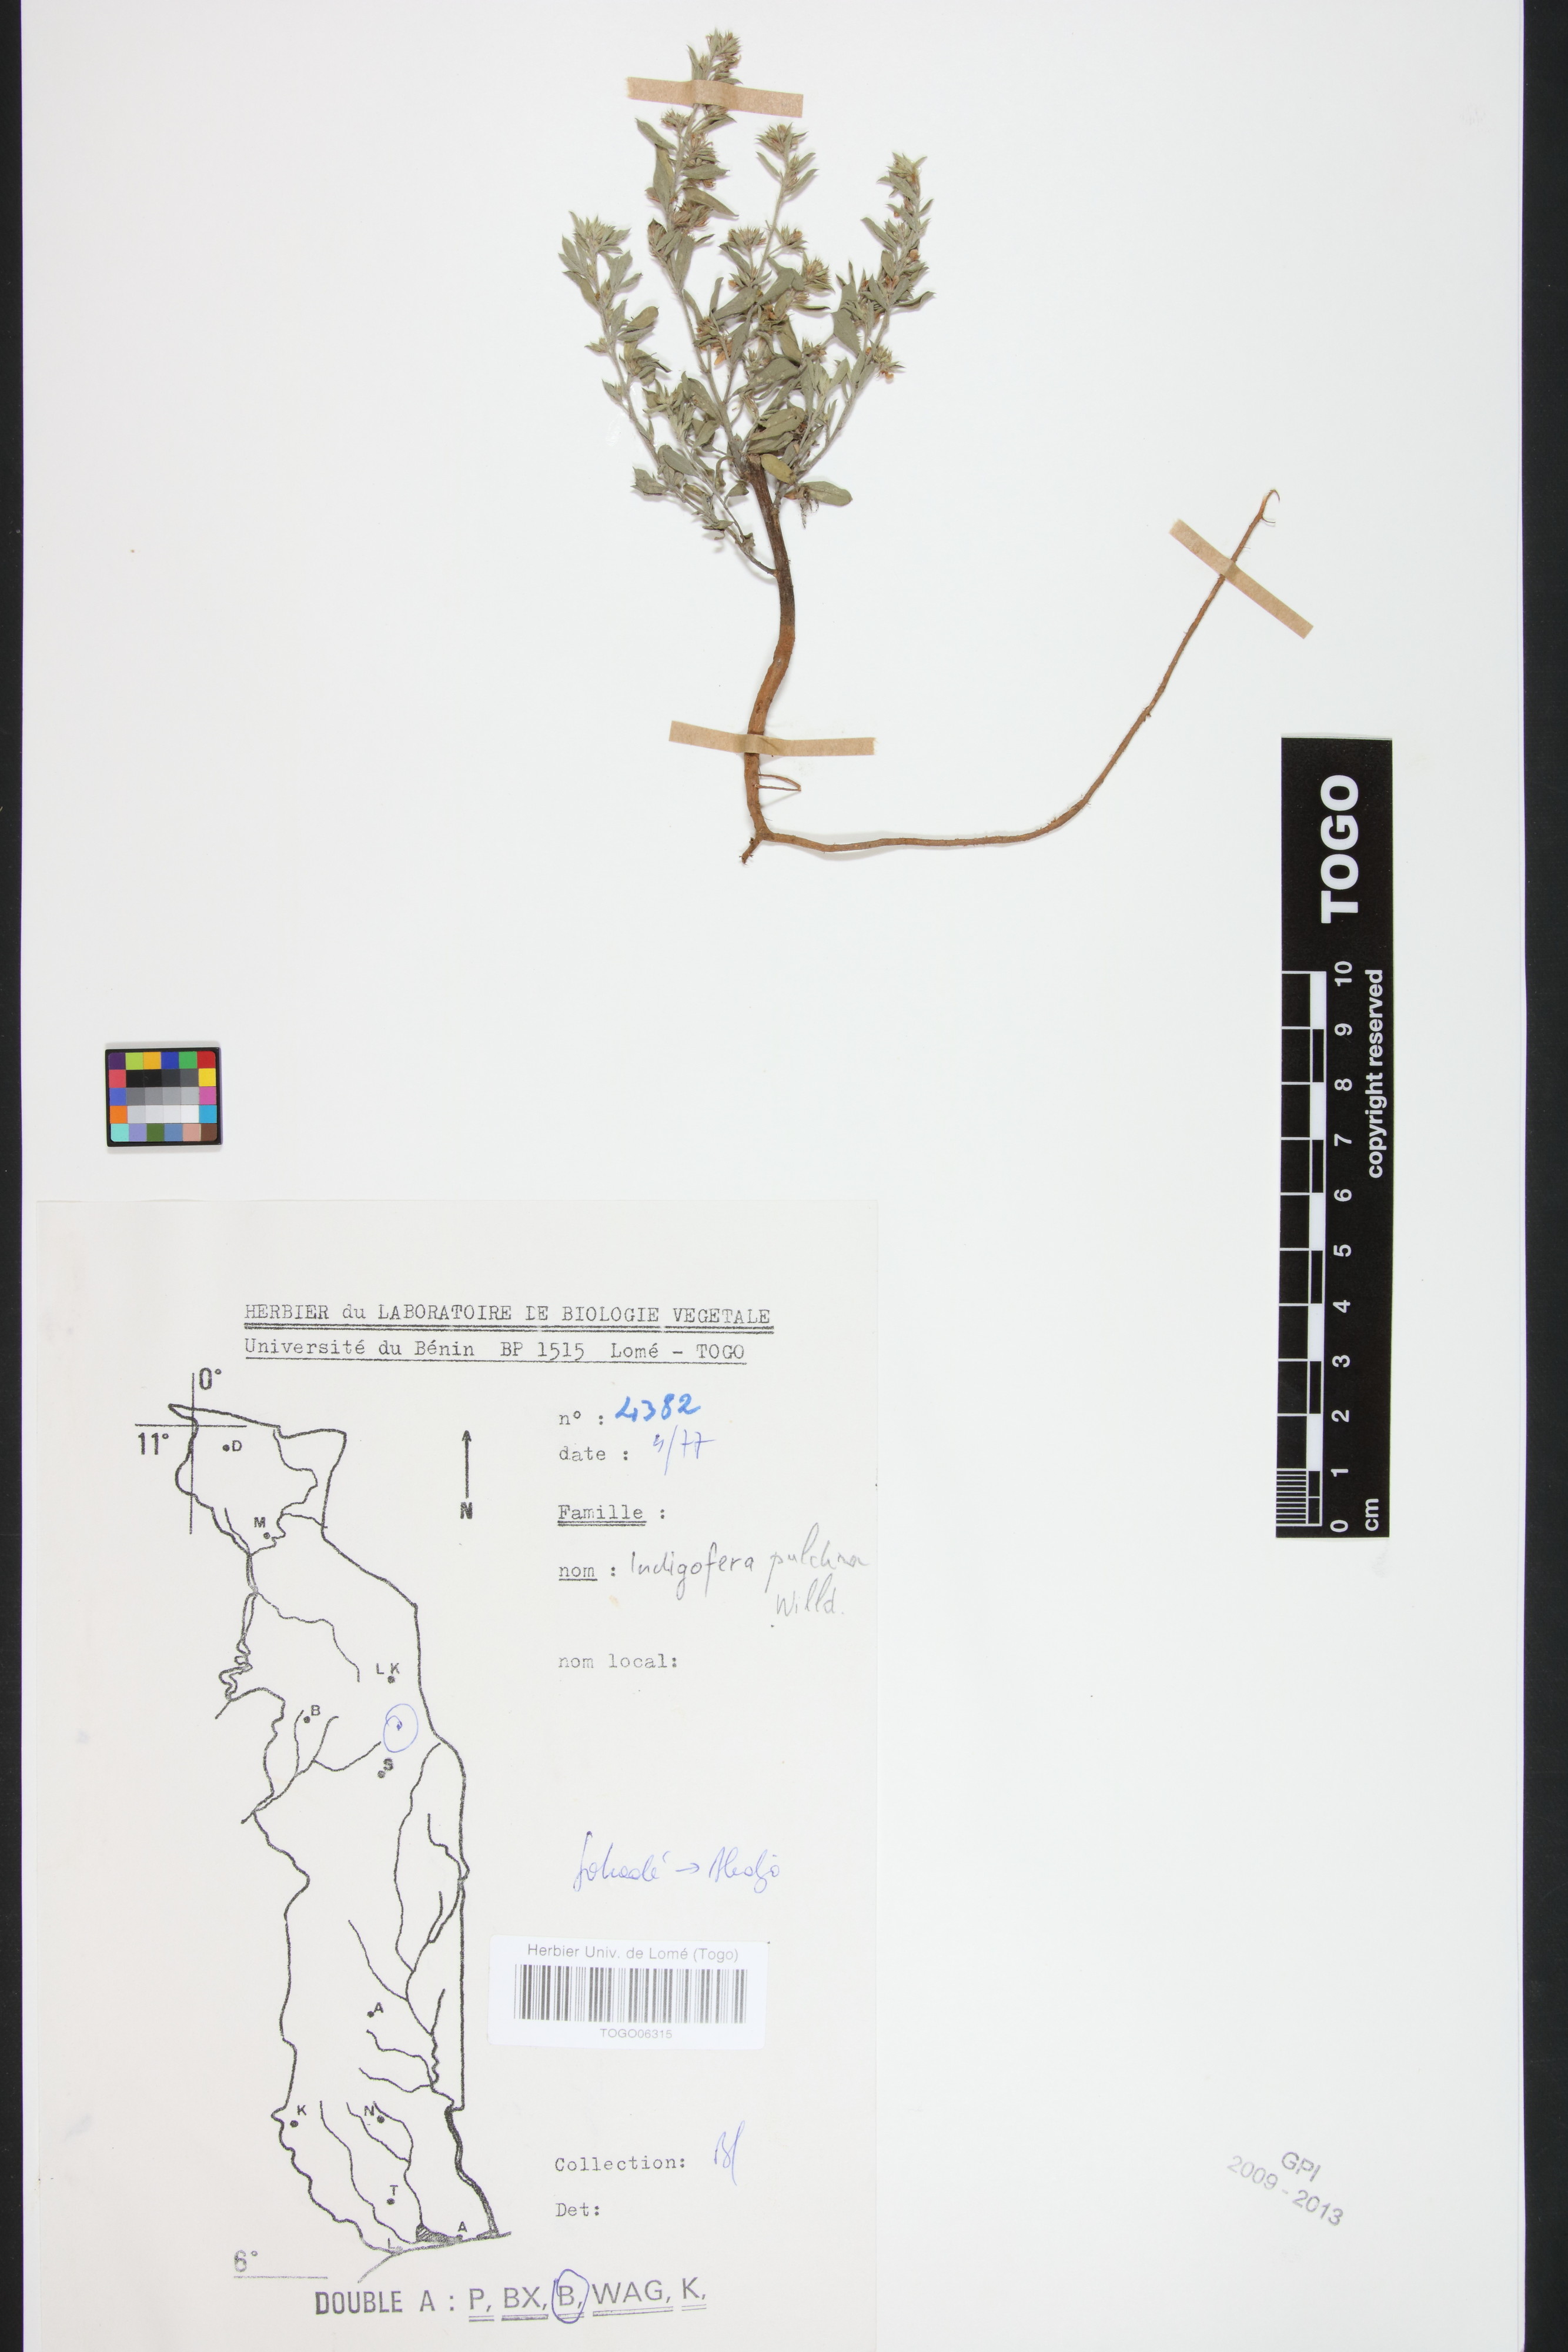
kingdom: Plantae
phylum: Tracheophyta
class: Magnoliopsida
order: Fabales
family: Fabaceae
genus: Indigofera
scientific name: Indigofera pulchra
